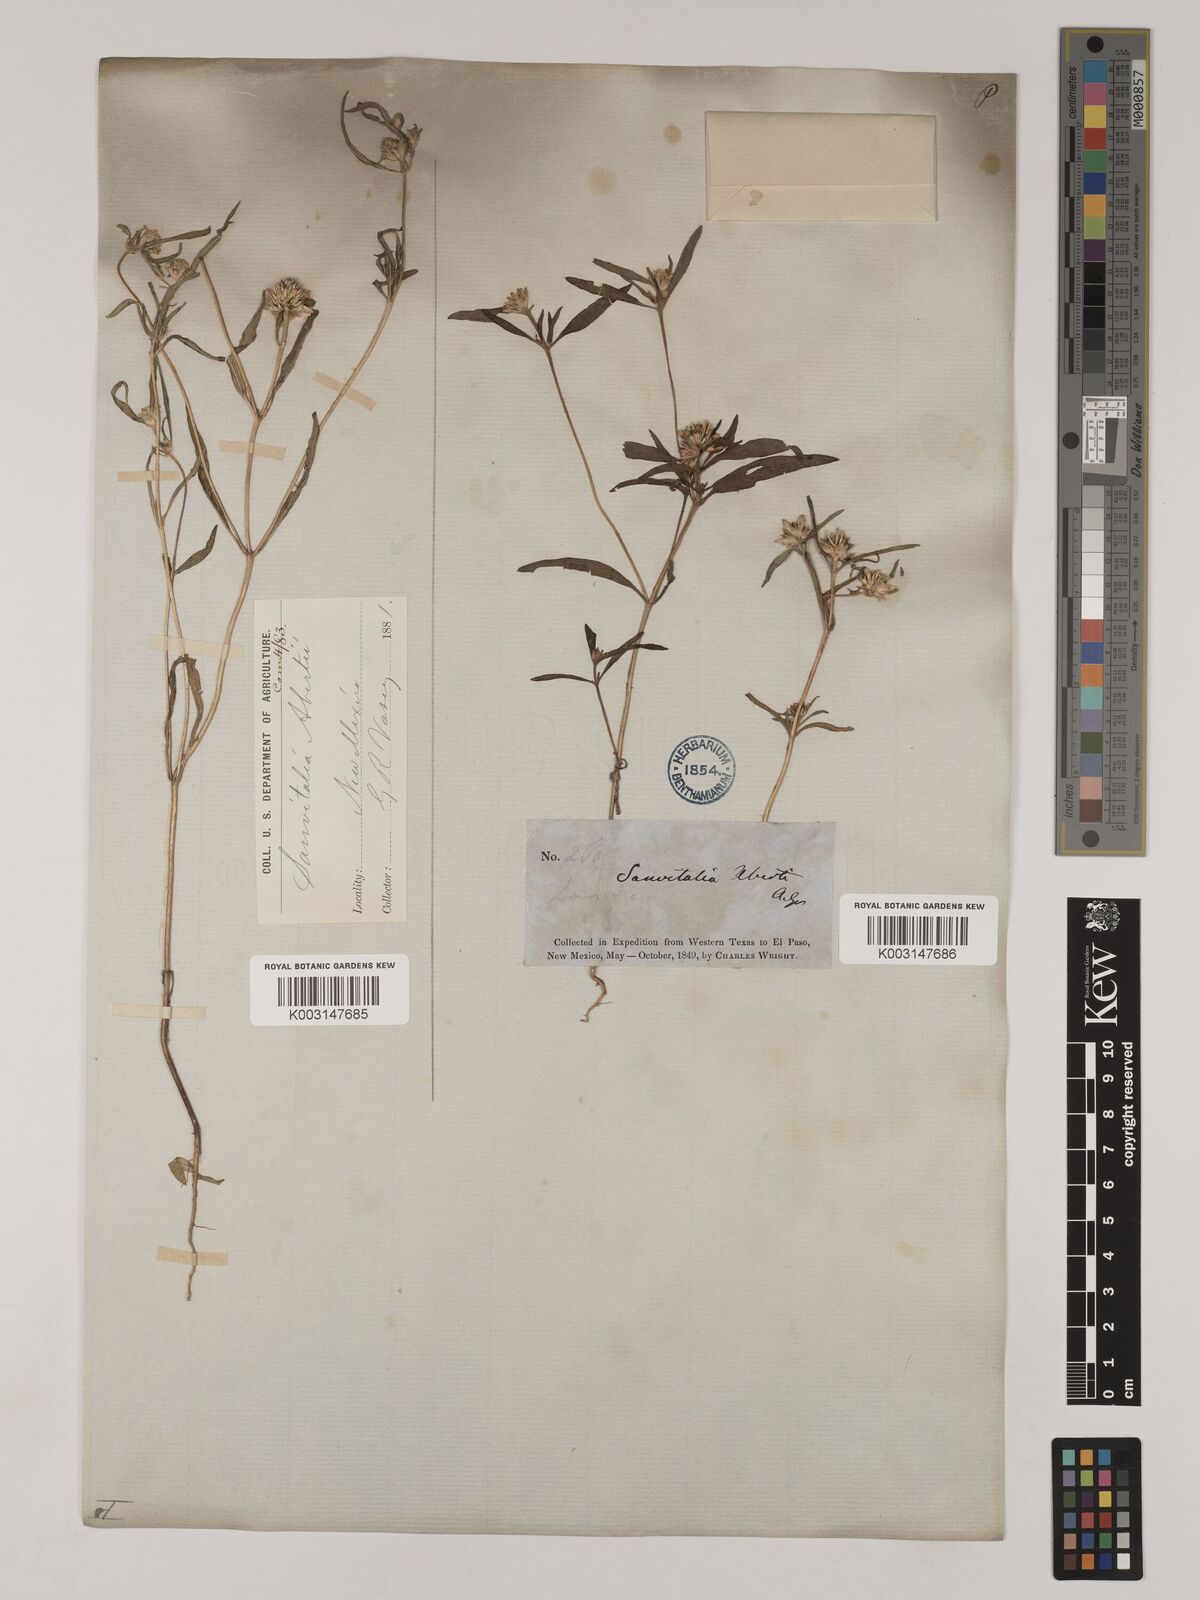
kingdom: Plantae
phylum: Tracheophyta
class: Magnoliopsida
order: Asterales
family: Asteraceae
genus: Sanvitalia
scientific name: Sanvitalia abertii
